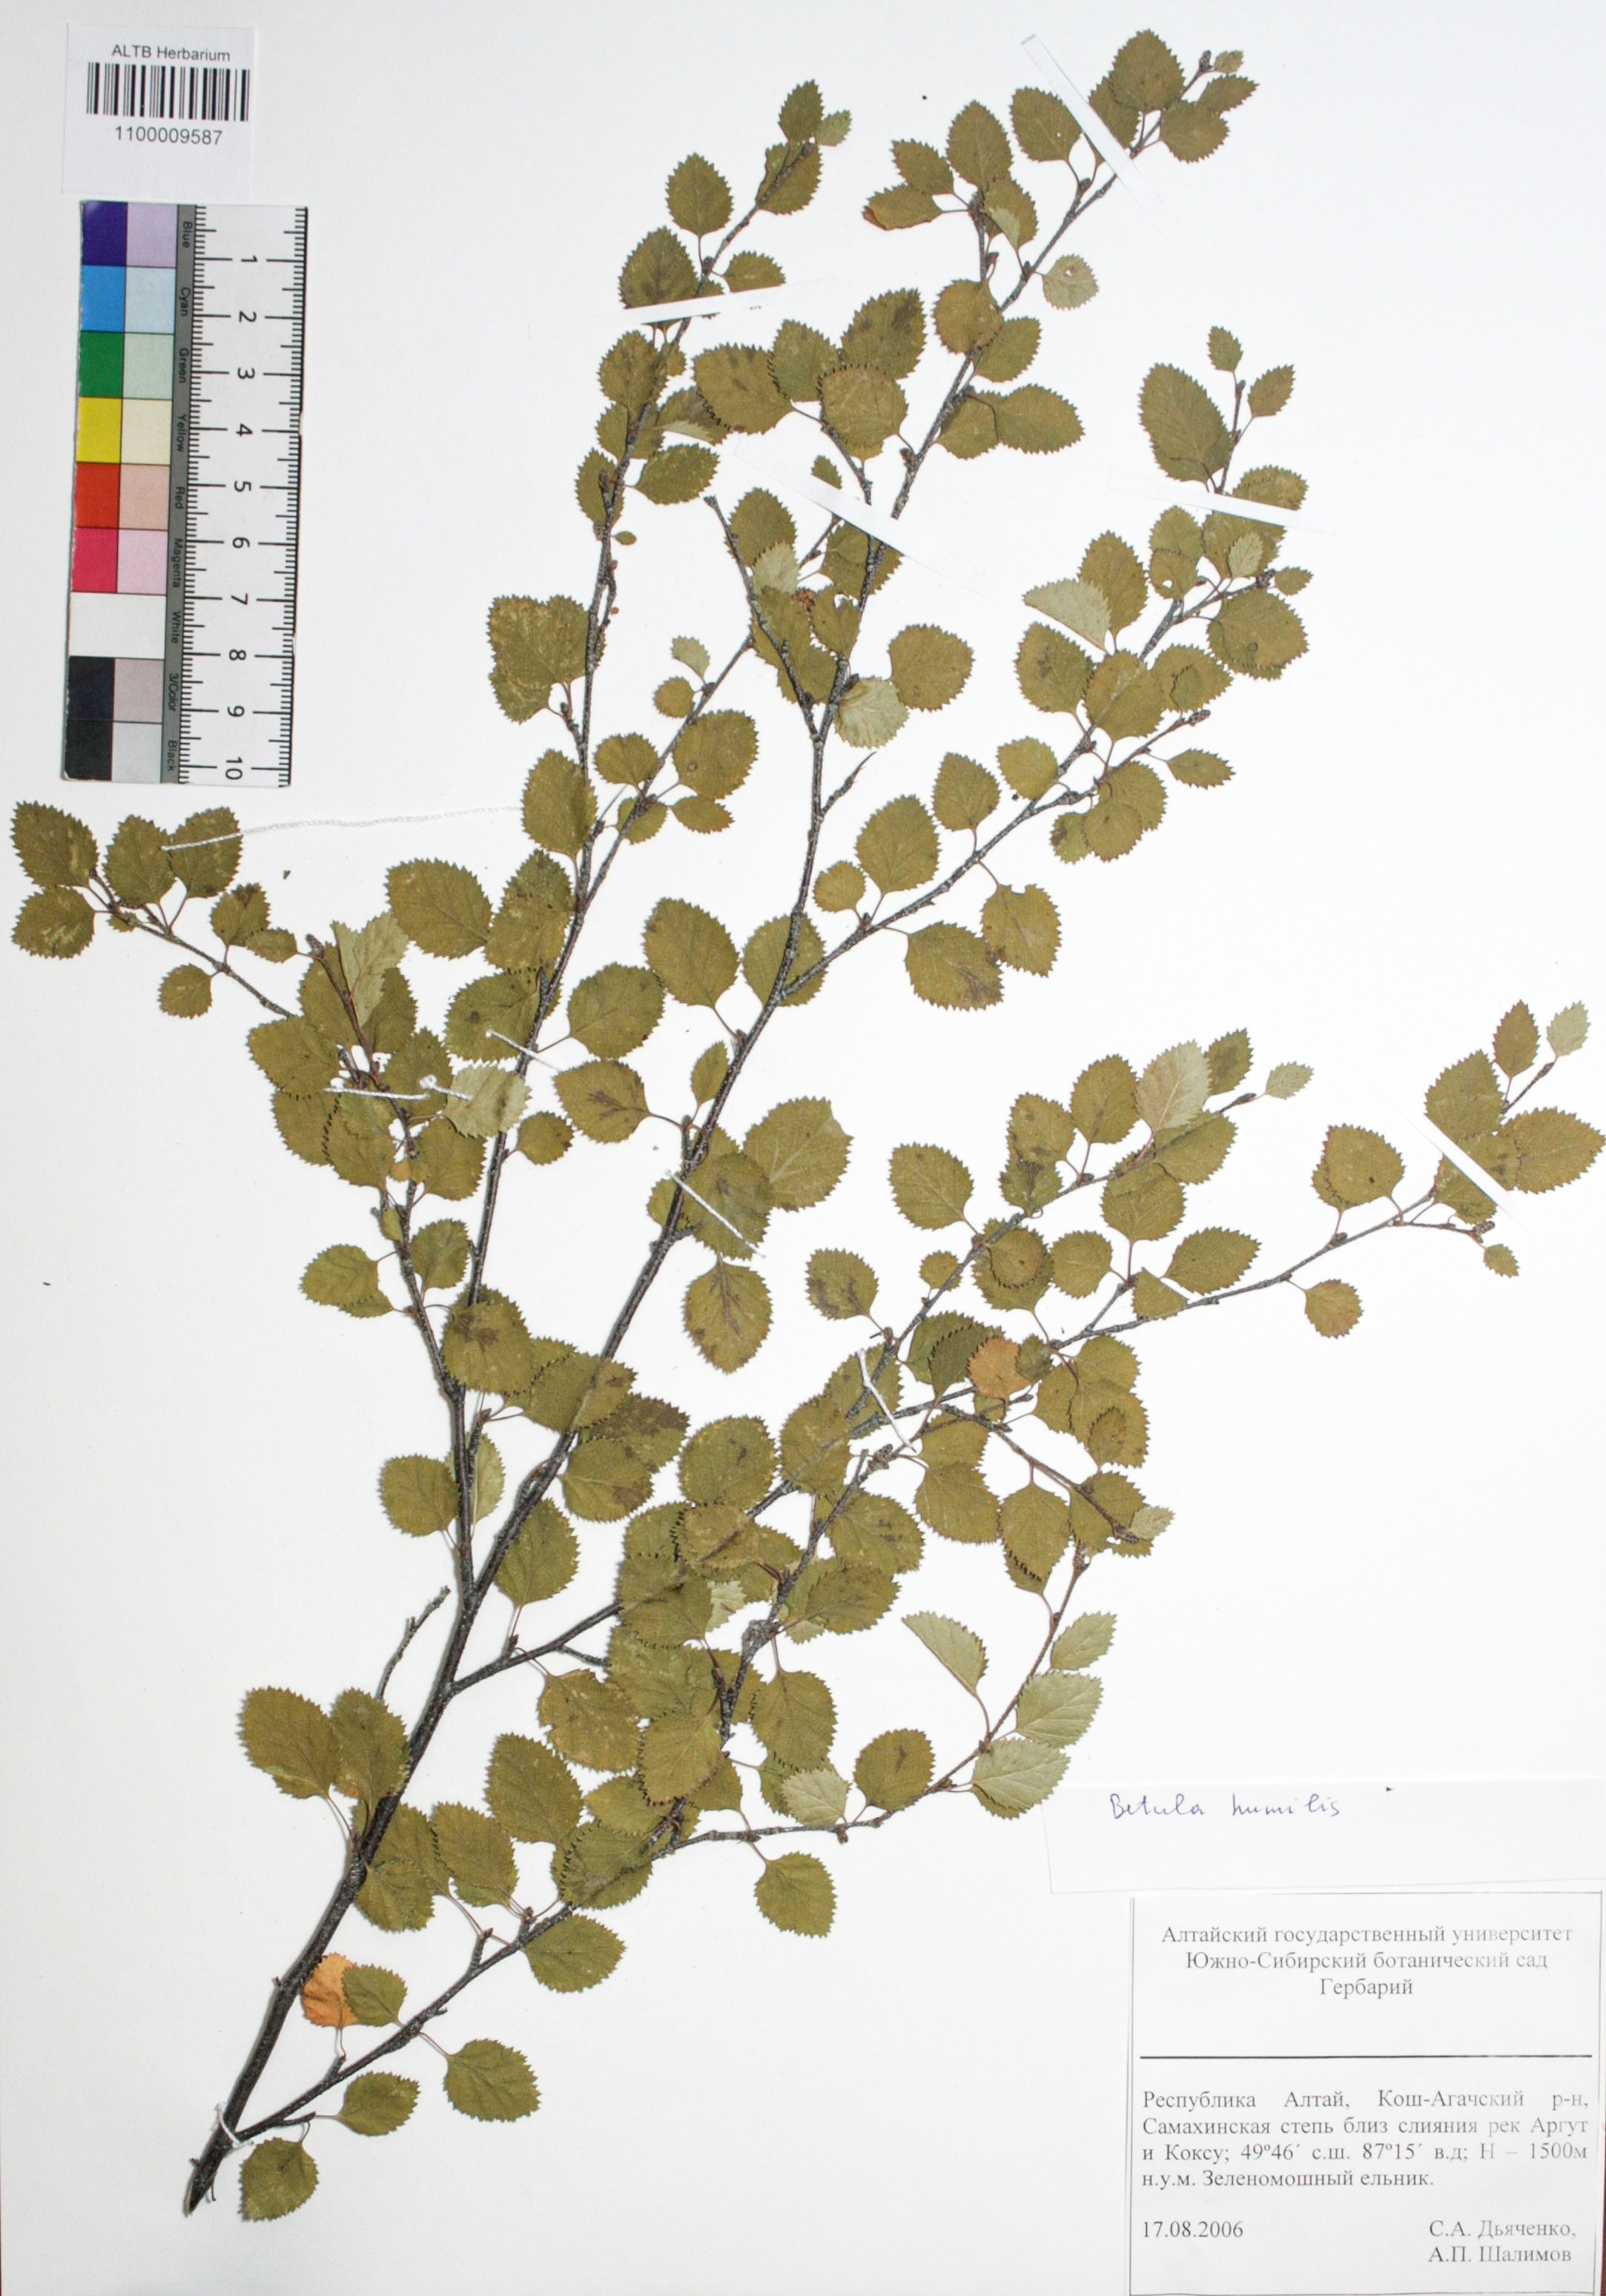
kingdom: Plantae
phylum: Tracheophyta
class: Magnoliopsida
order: Fagales
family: Betulaceae
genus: Betula
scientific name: Betula humilis
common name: Shrubby birch
